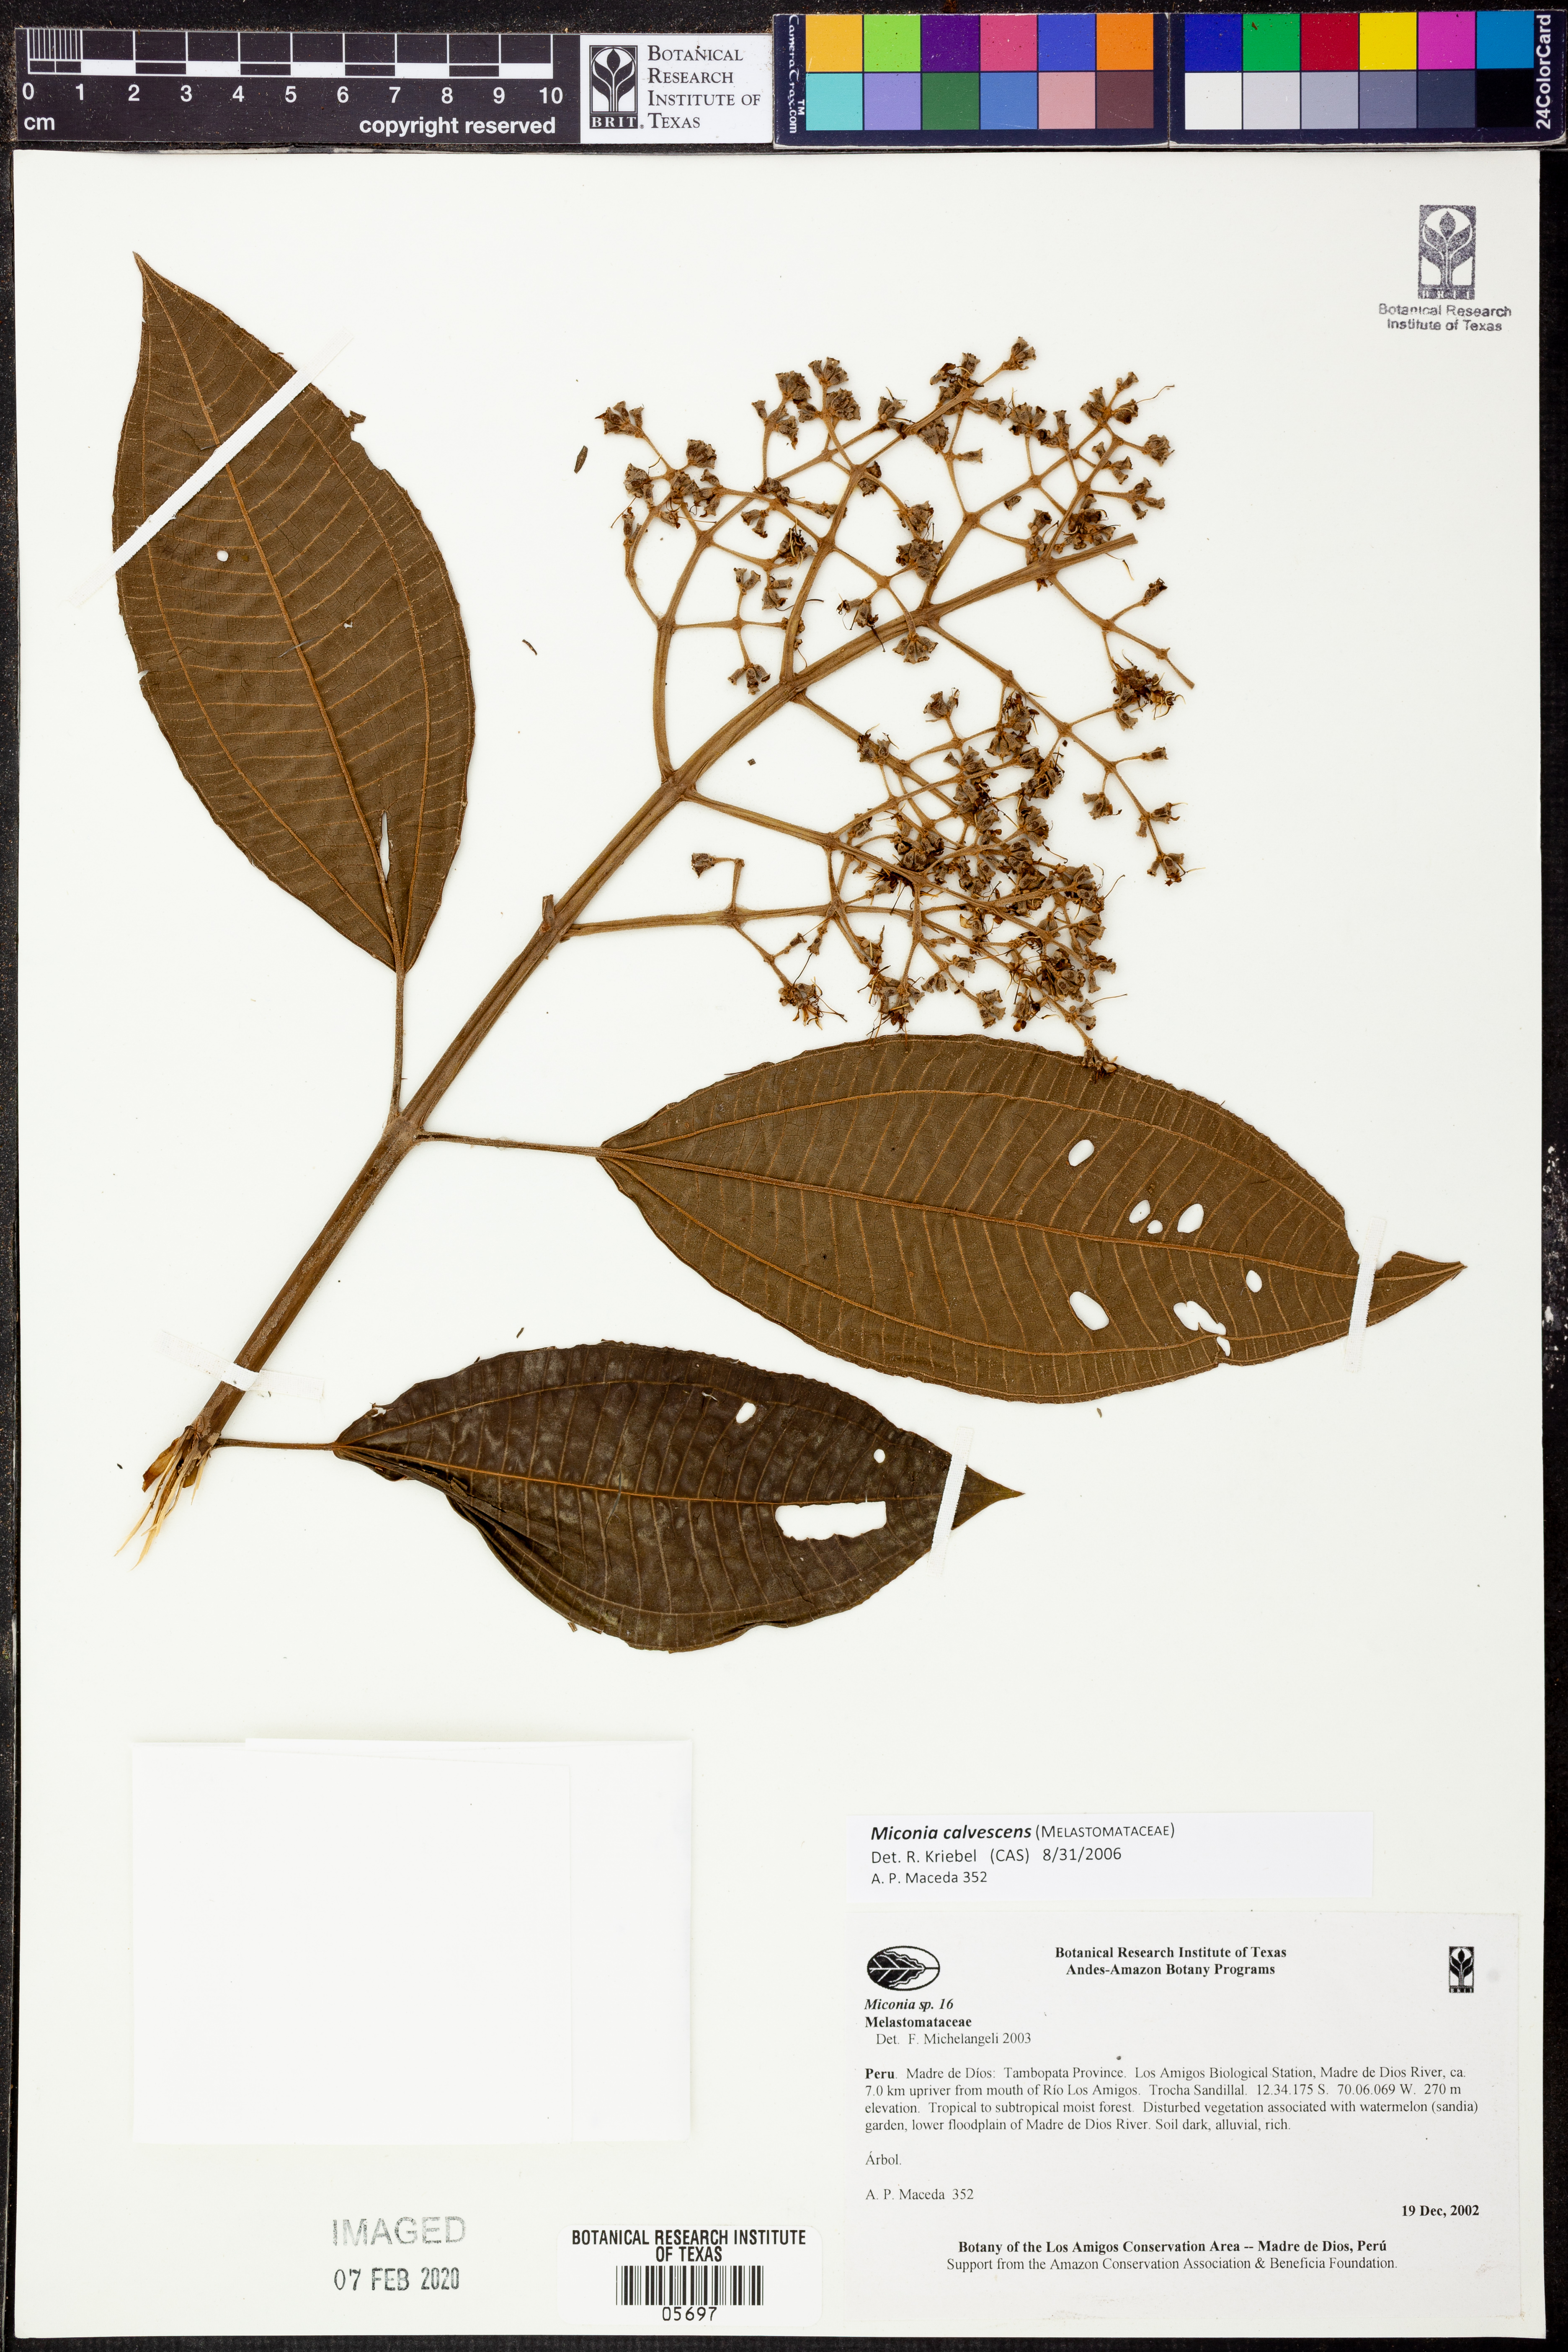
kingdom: Plantae
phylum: Tracheophyta
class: Magnoliopsida
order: Myrtales
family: Melastomataceae
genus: Miconia
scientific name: Miconia calvescens
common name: Purple plague
